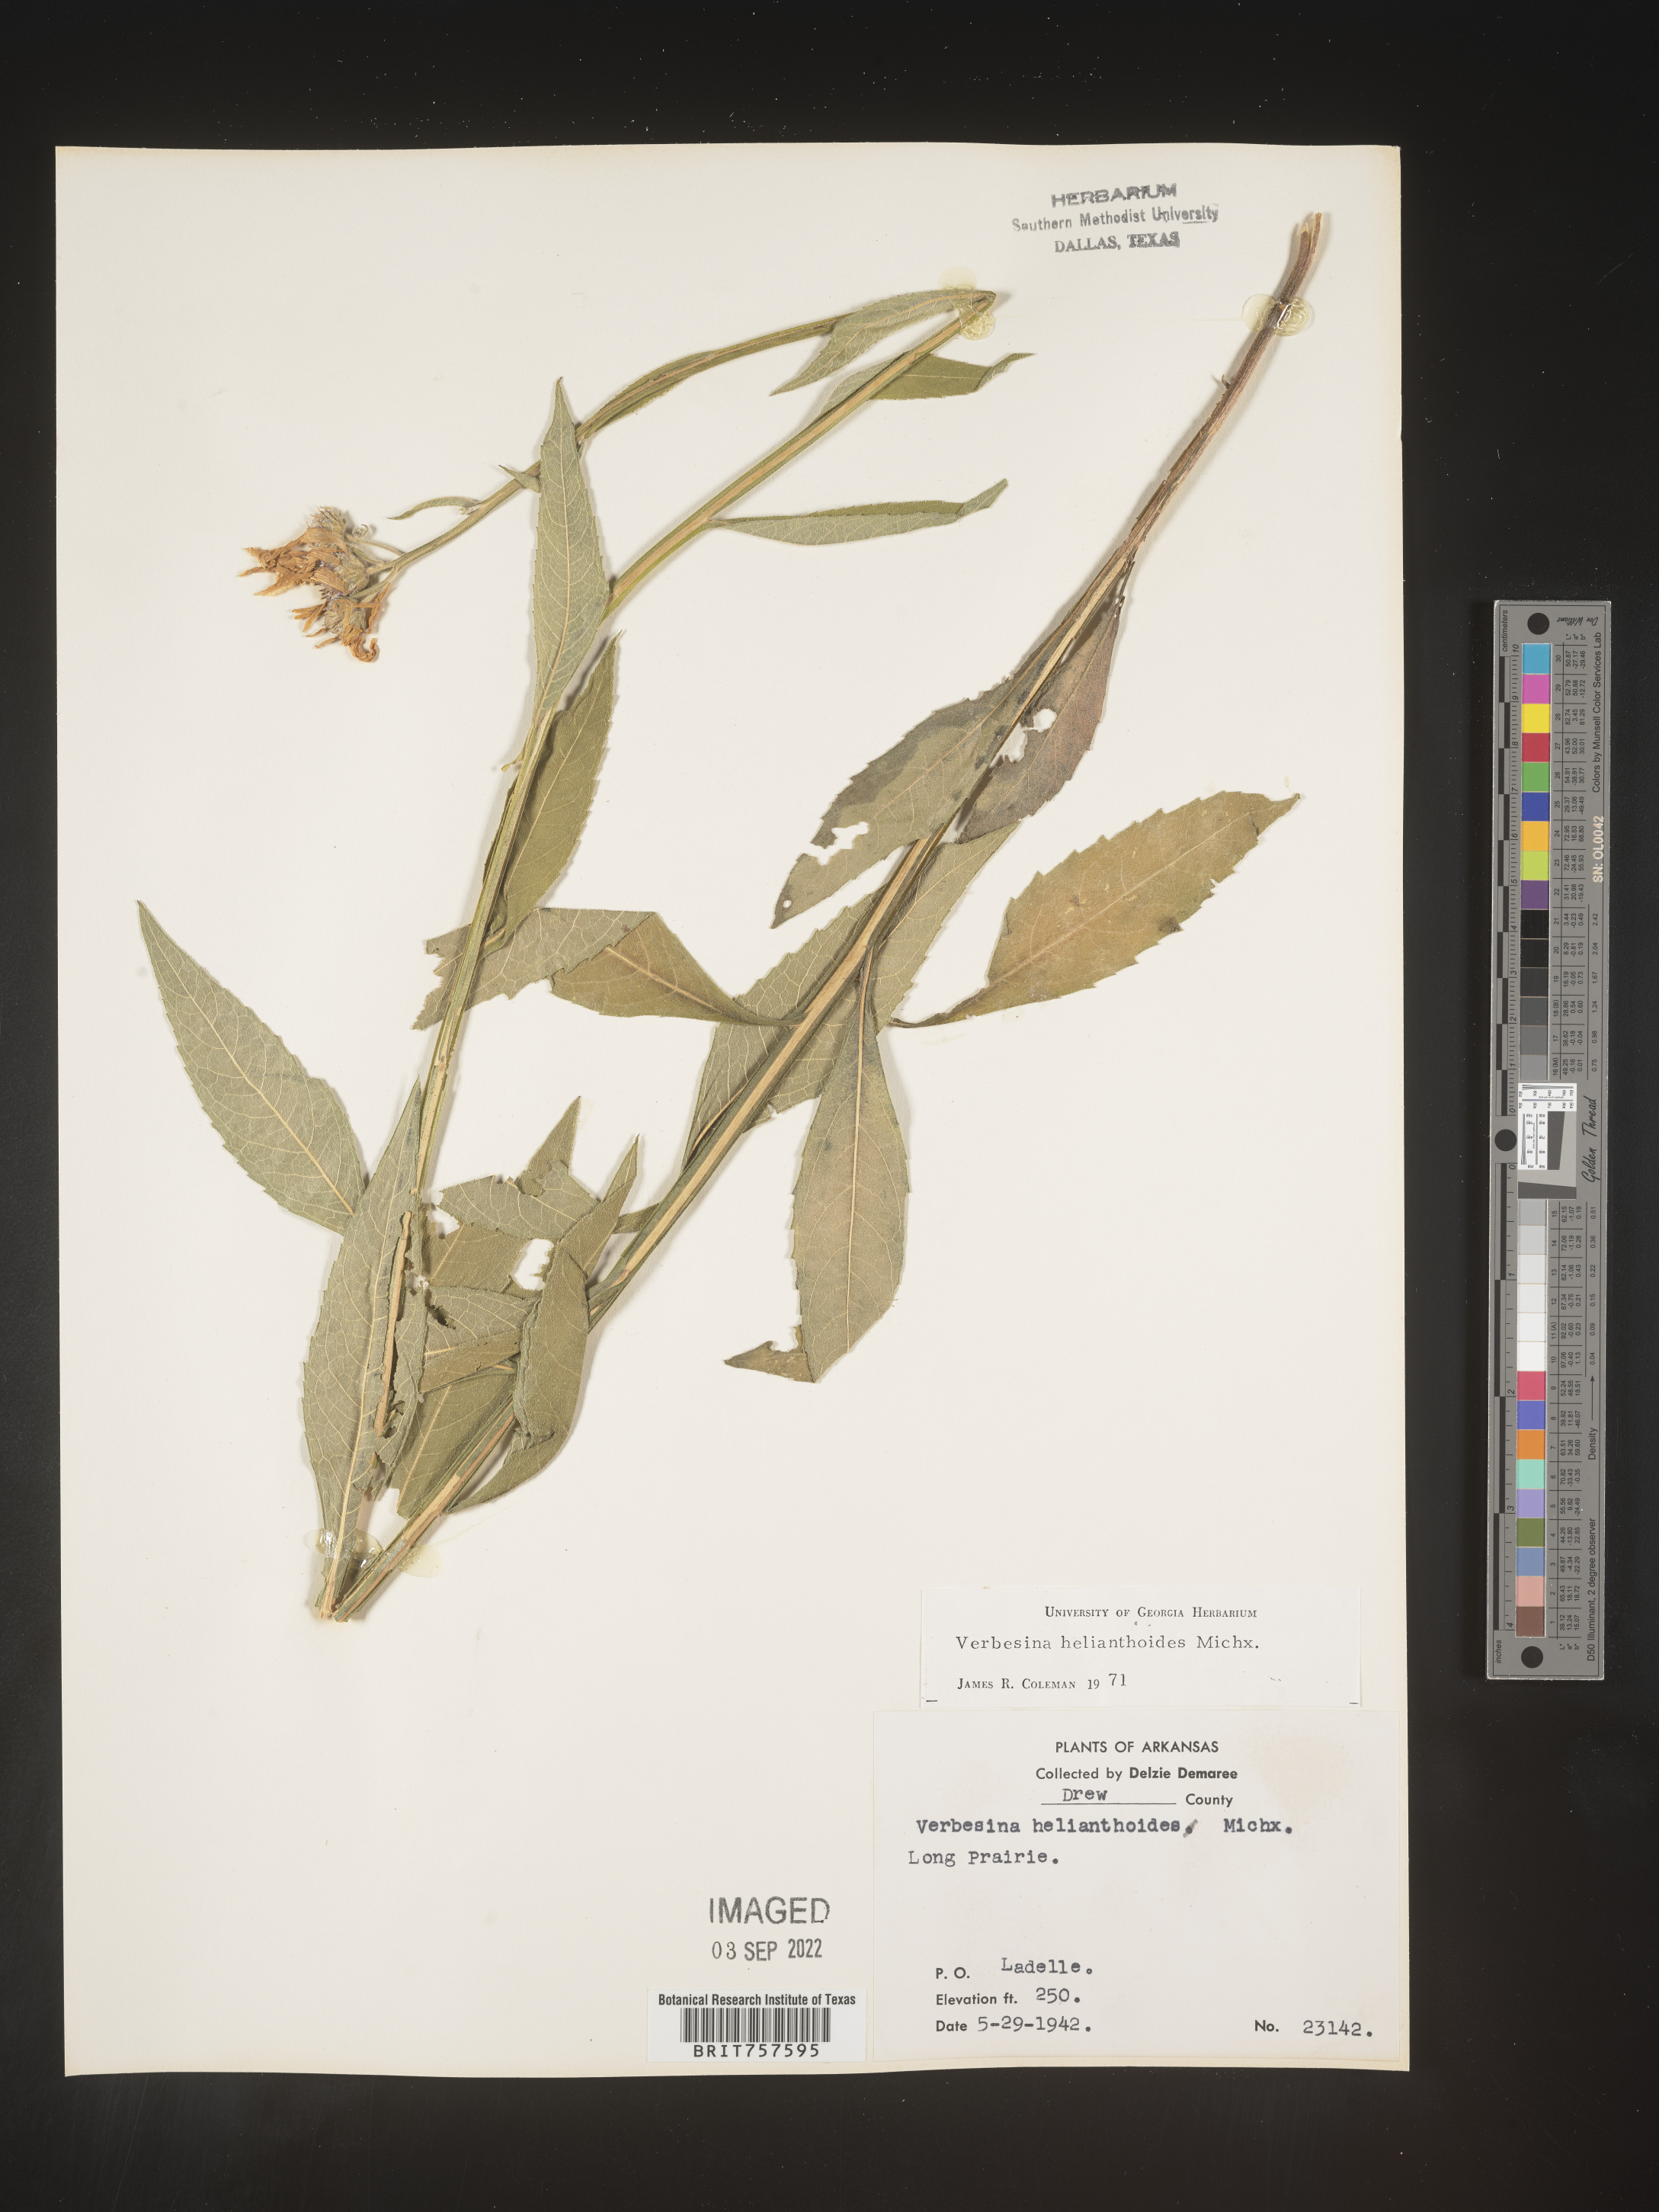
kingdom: Plantae
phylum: Tracheophyta
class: Magnoliopsida
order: Asterales
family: Asteraceae
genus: Verbesina
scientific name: Verbesina helianthoides
